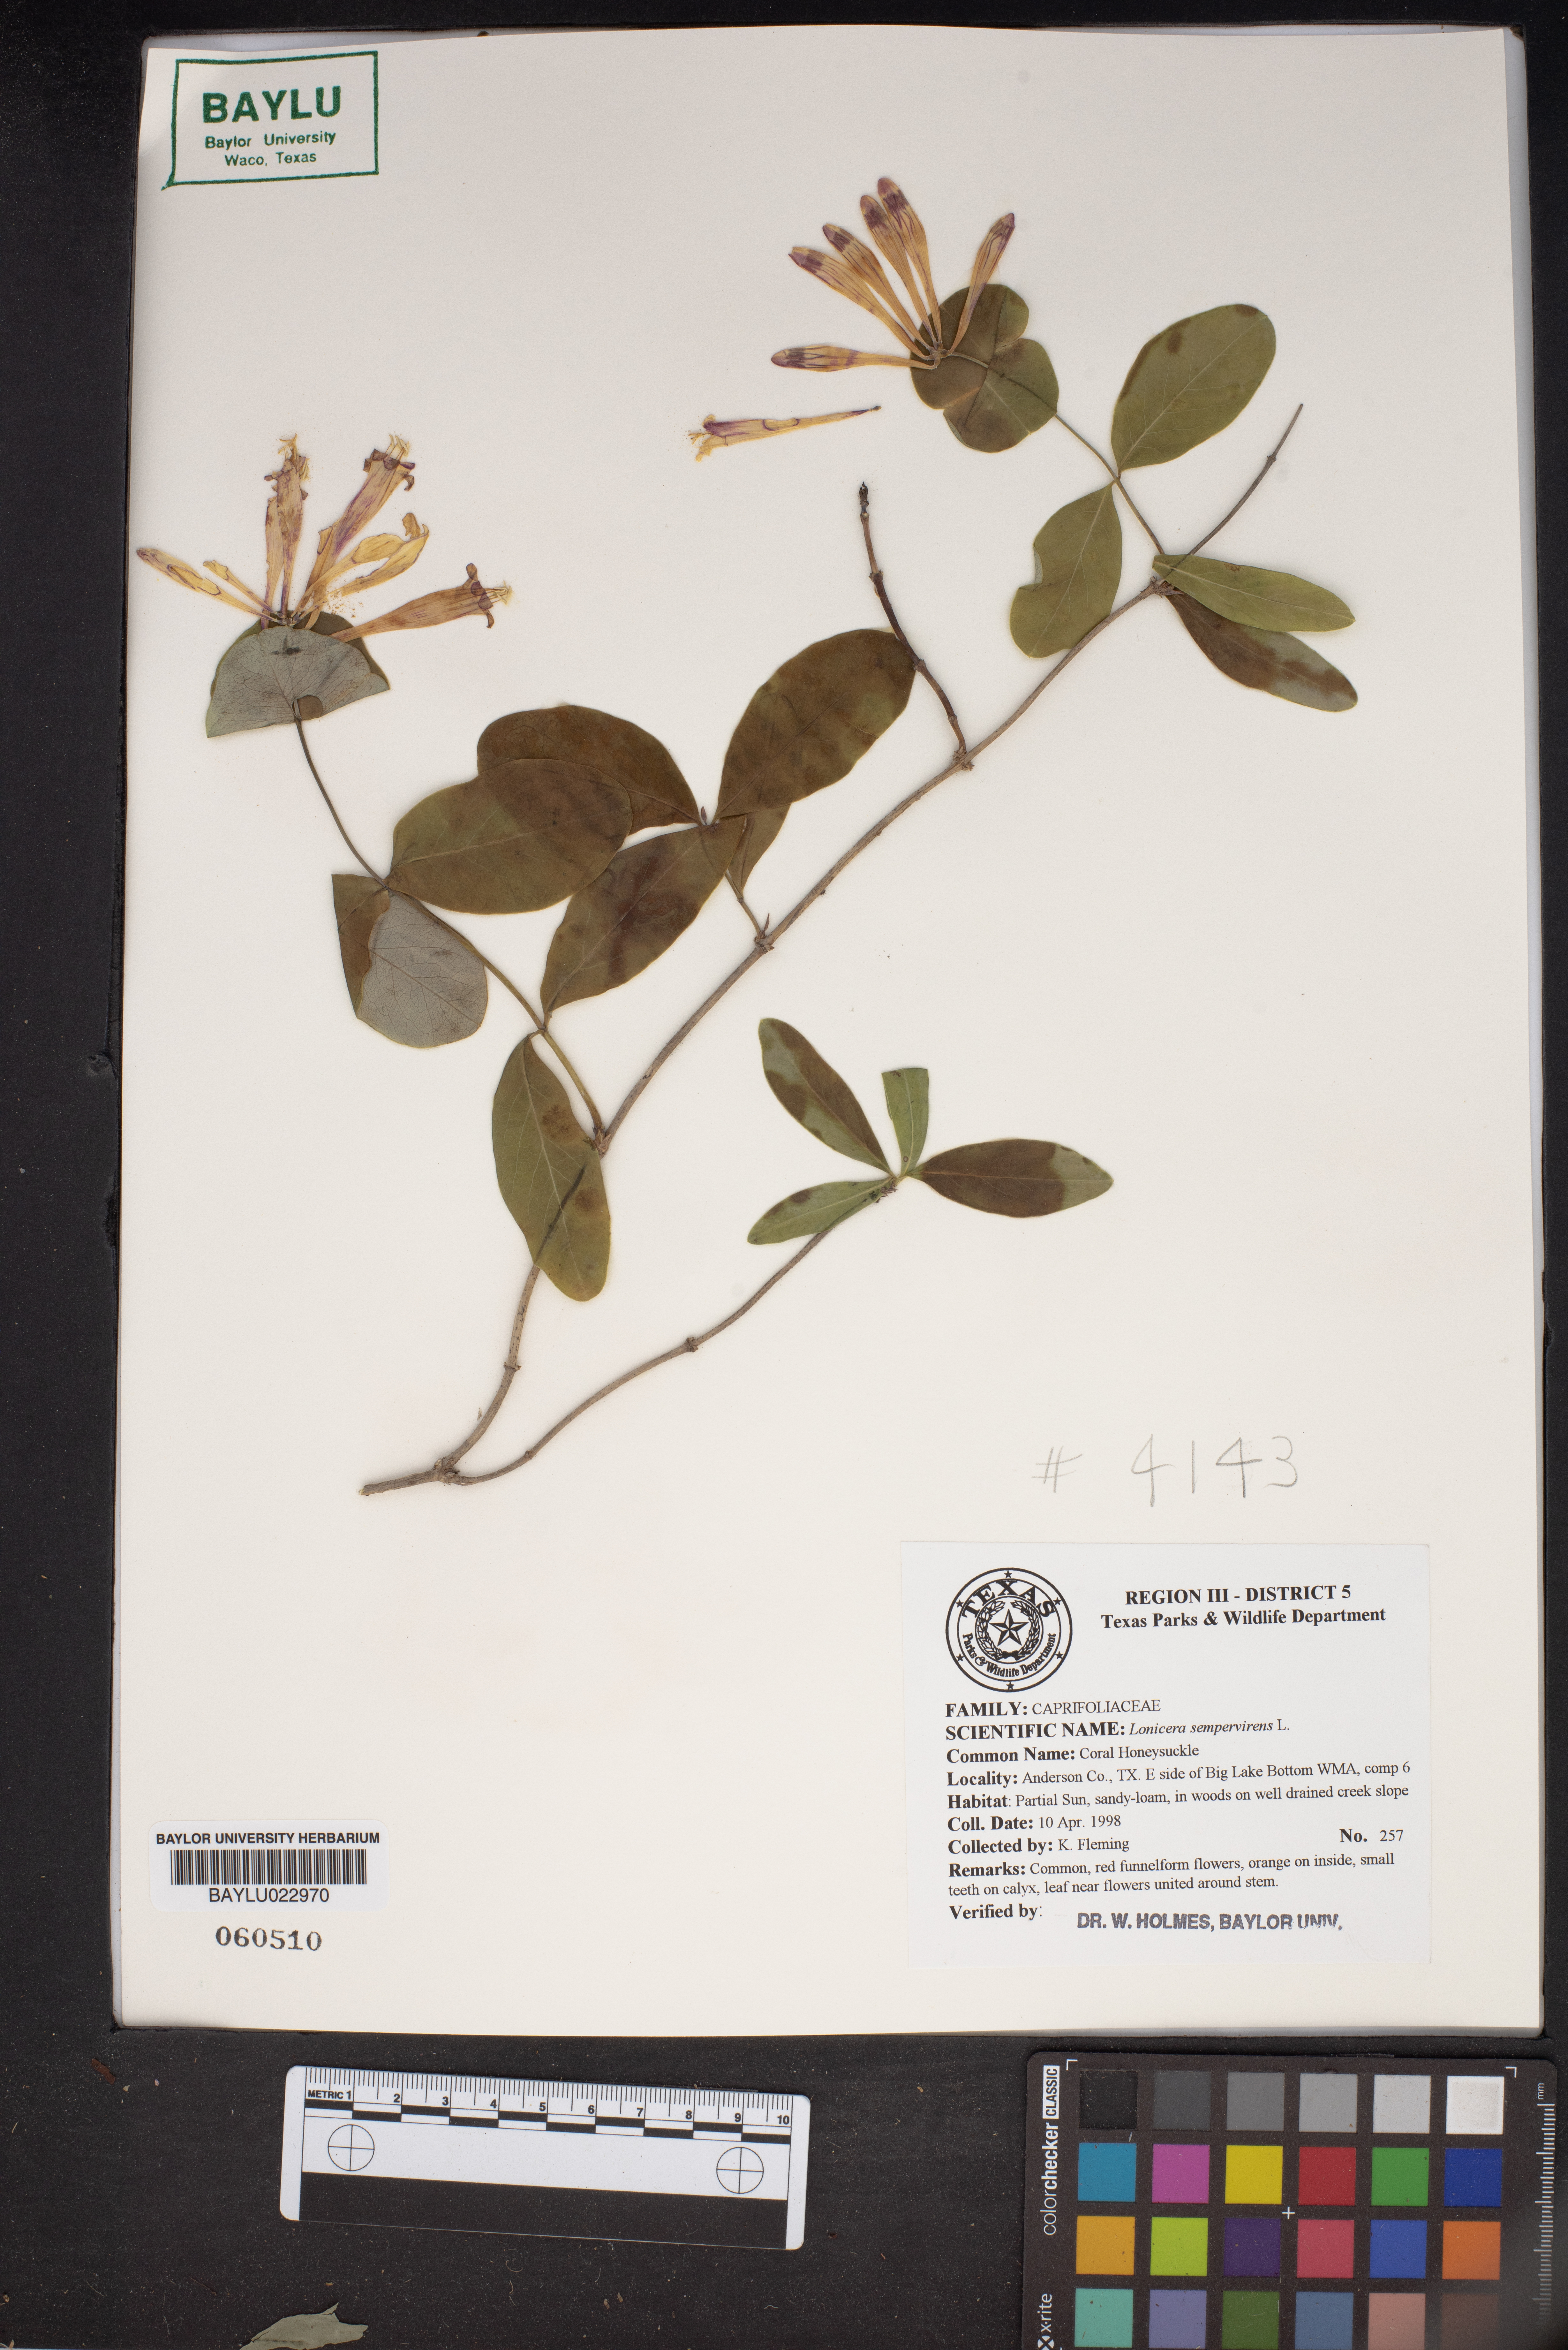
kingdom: Plantae
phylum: Tracheophyta
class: Magnoliopsida
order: Dipsacales
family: Caprifoliaceae
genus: Lonicera
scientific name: Lonicera sempervirens
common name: Coral honeysuckle
